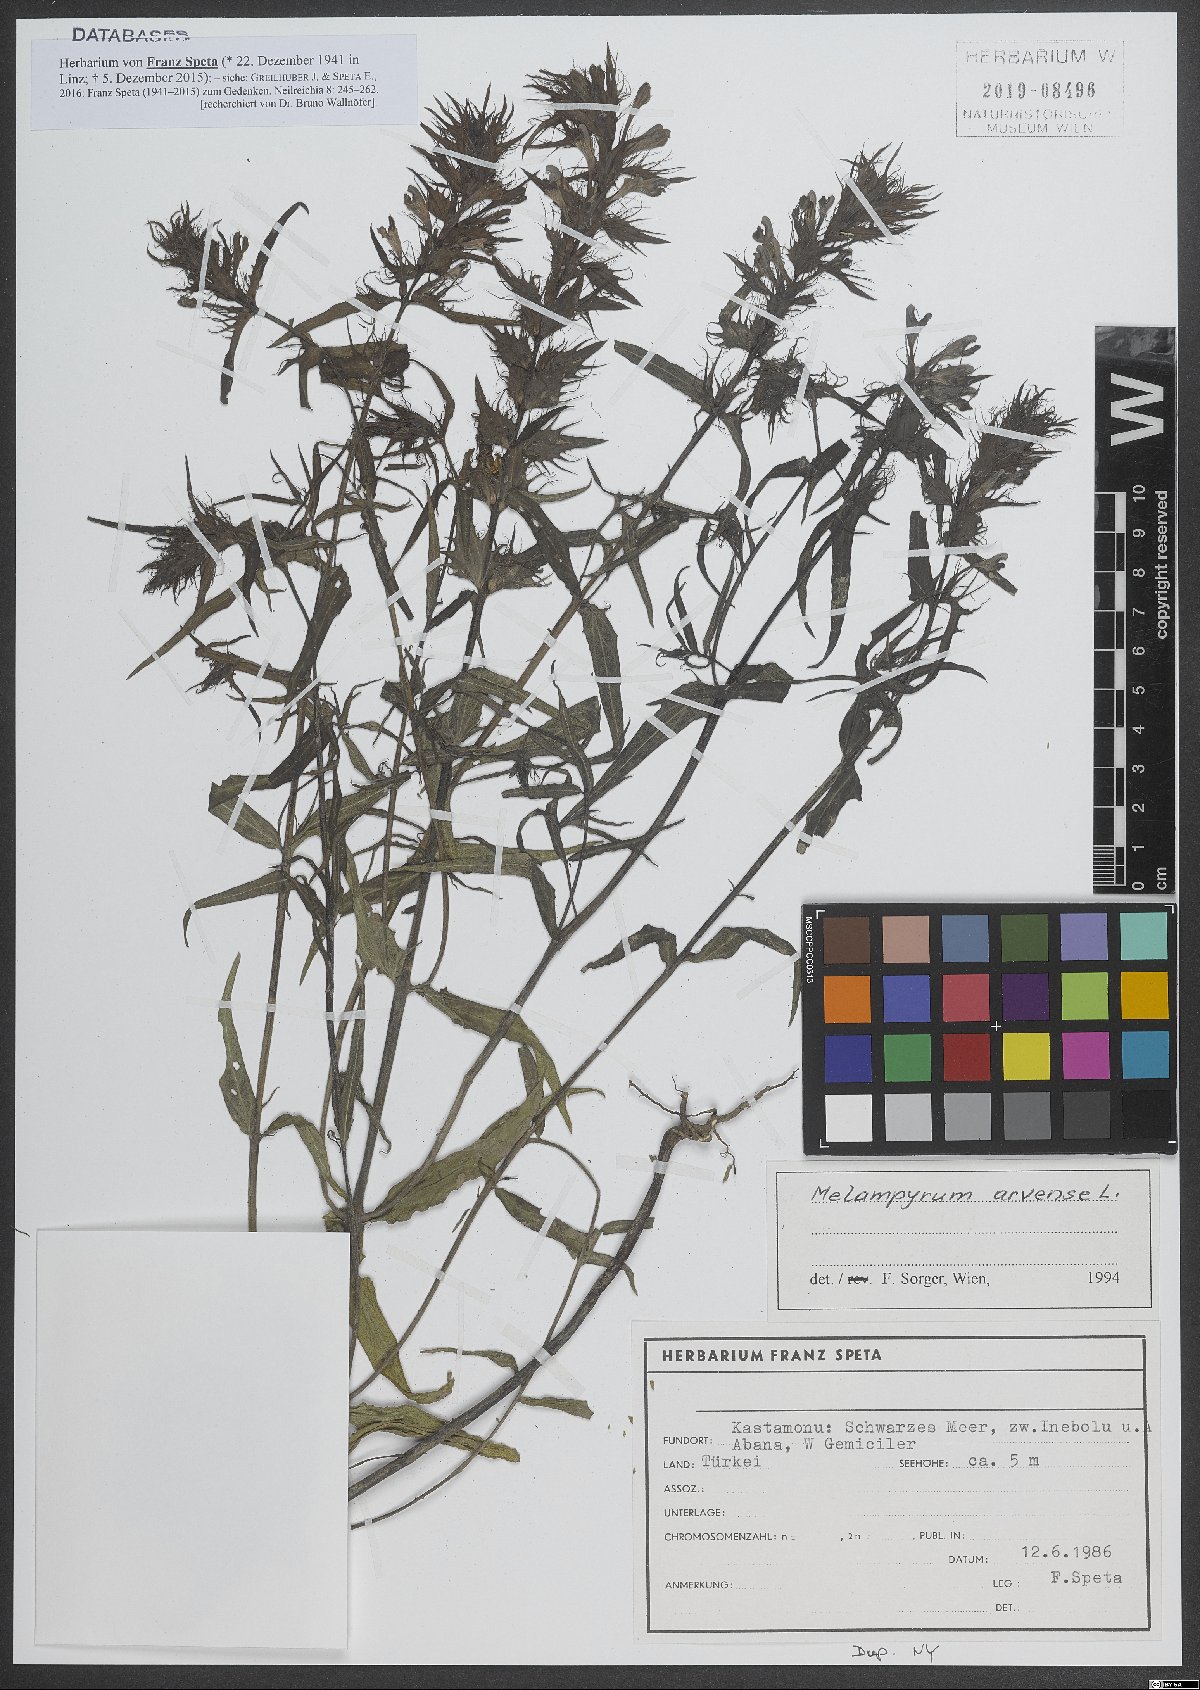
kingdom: Plantae
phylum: Tracheophyta
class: Magnoliopsida
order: Lamiales
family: Orobanchaceae
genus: Melampyrum
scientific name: Melampyrum arvense
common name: Field cow-wheat
